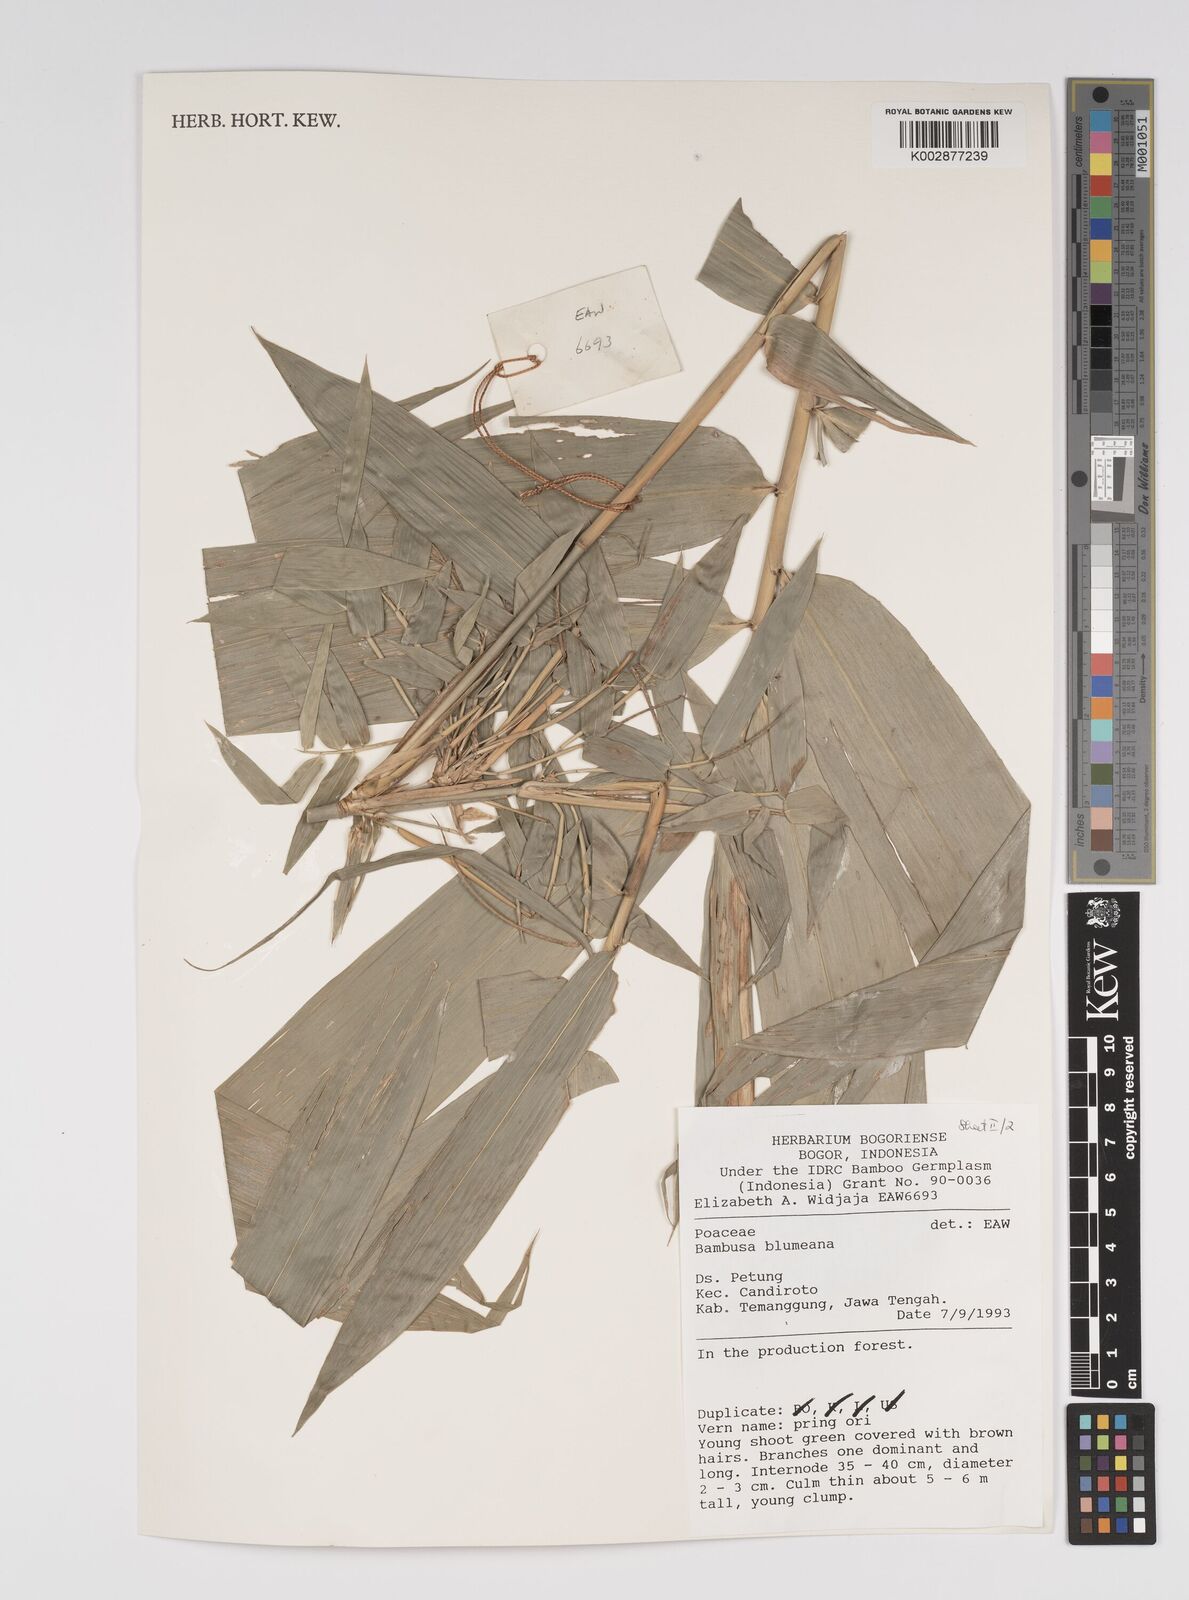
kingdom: Plantae
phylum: Tracheophyta
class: Liliopsida
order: Poales
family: Poaceae
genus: Bambusa
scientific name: Bambusa
